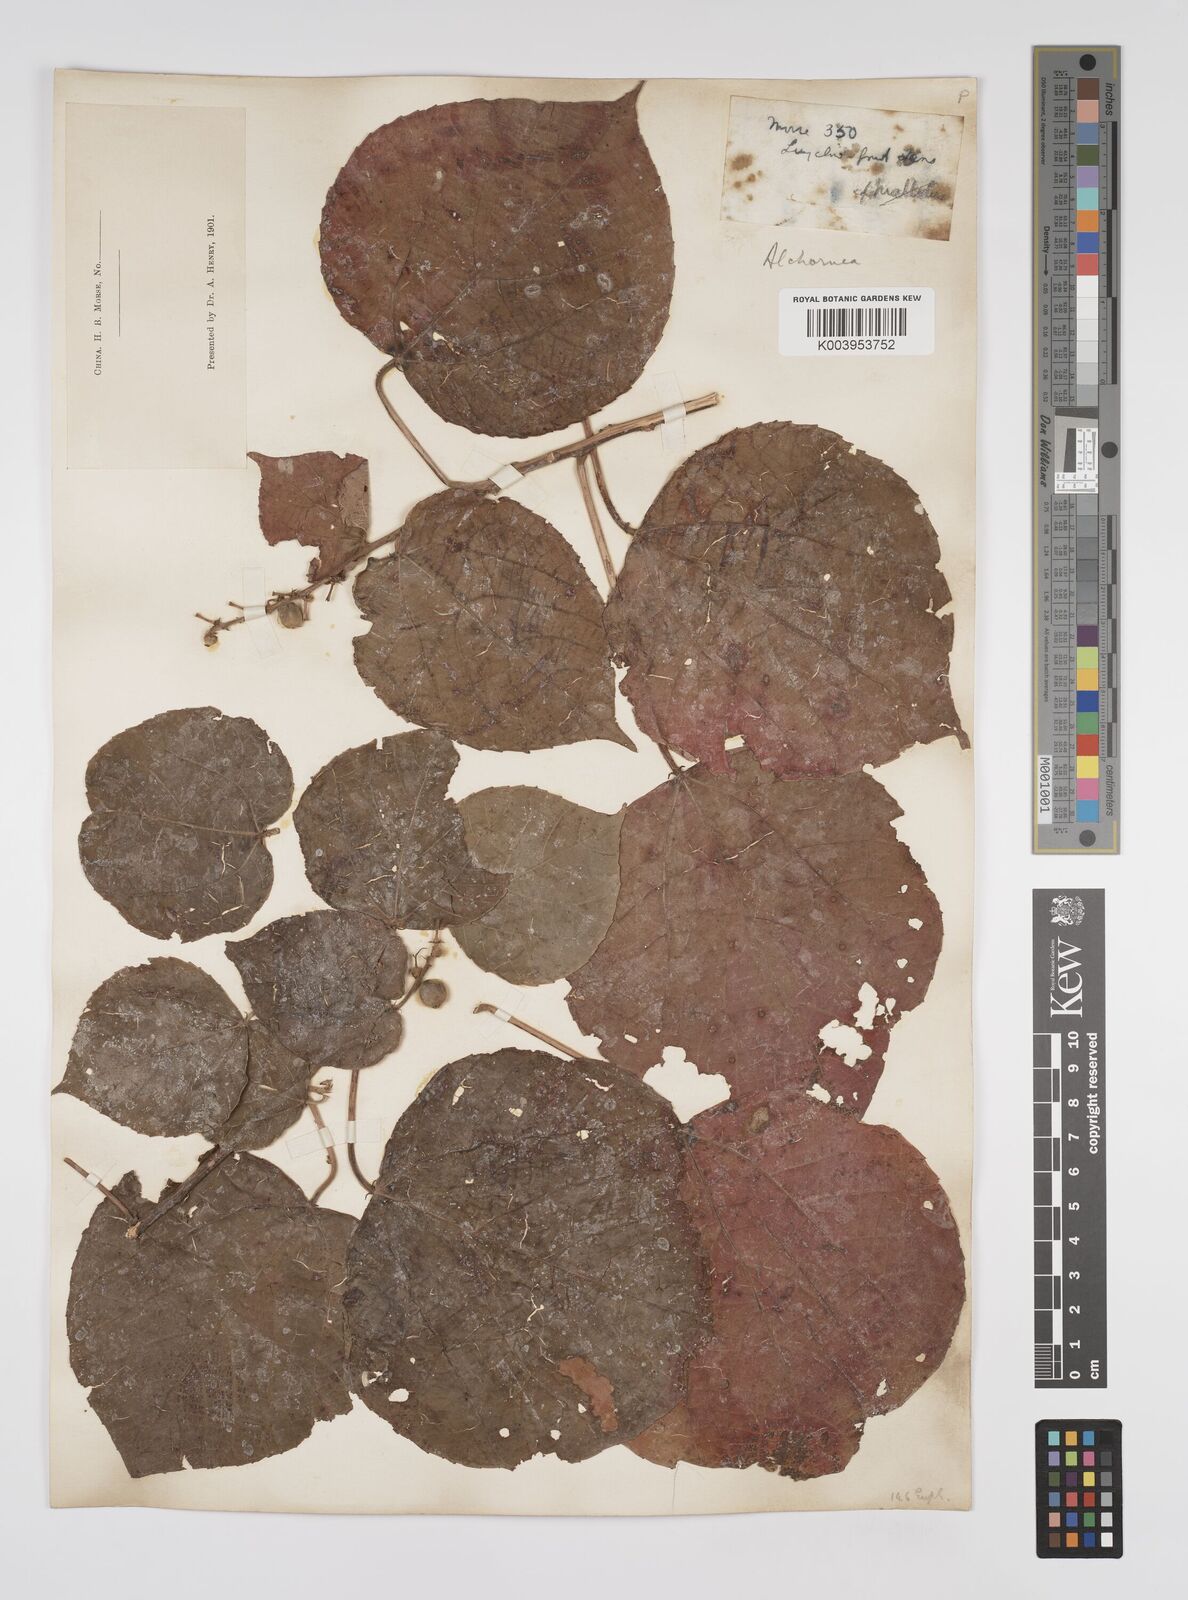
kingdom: Plantae
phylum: Tracheophyta
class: Magnoliopsida
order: Malpighiales
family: Euphorbiaceae
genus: Alchornea
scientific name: Alchornea mollis
